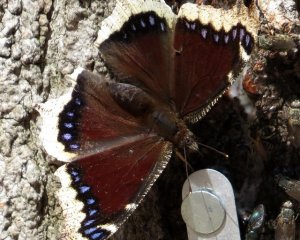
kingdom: Animalia
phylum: Arthropoda
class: Insecta
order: Lepidoptera
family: Nymphalidae
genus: Nymphalis
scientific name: Nymphalis antiopa
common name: Mourning Cloak
